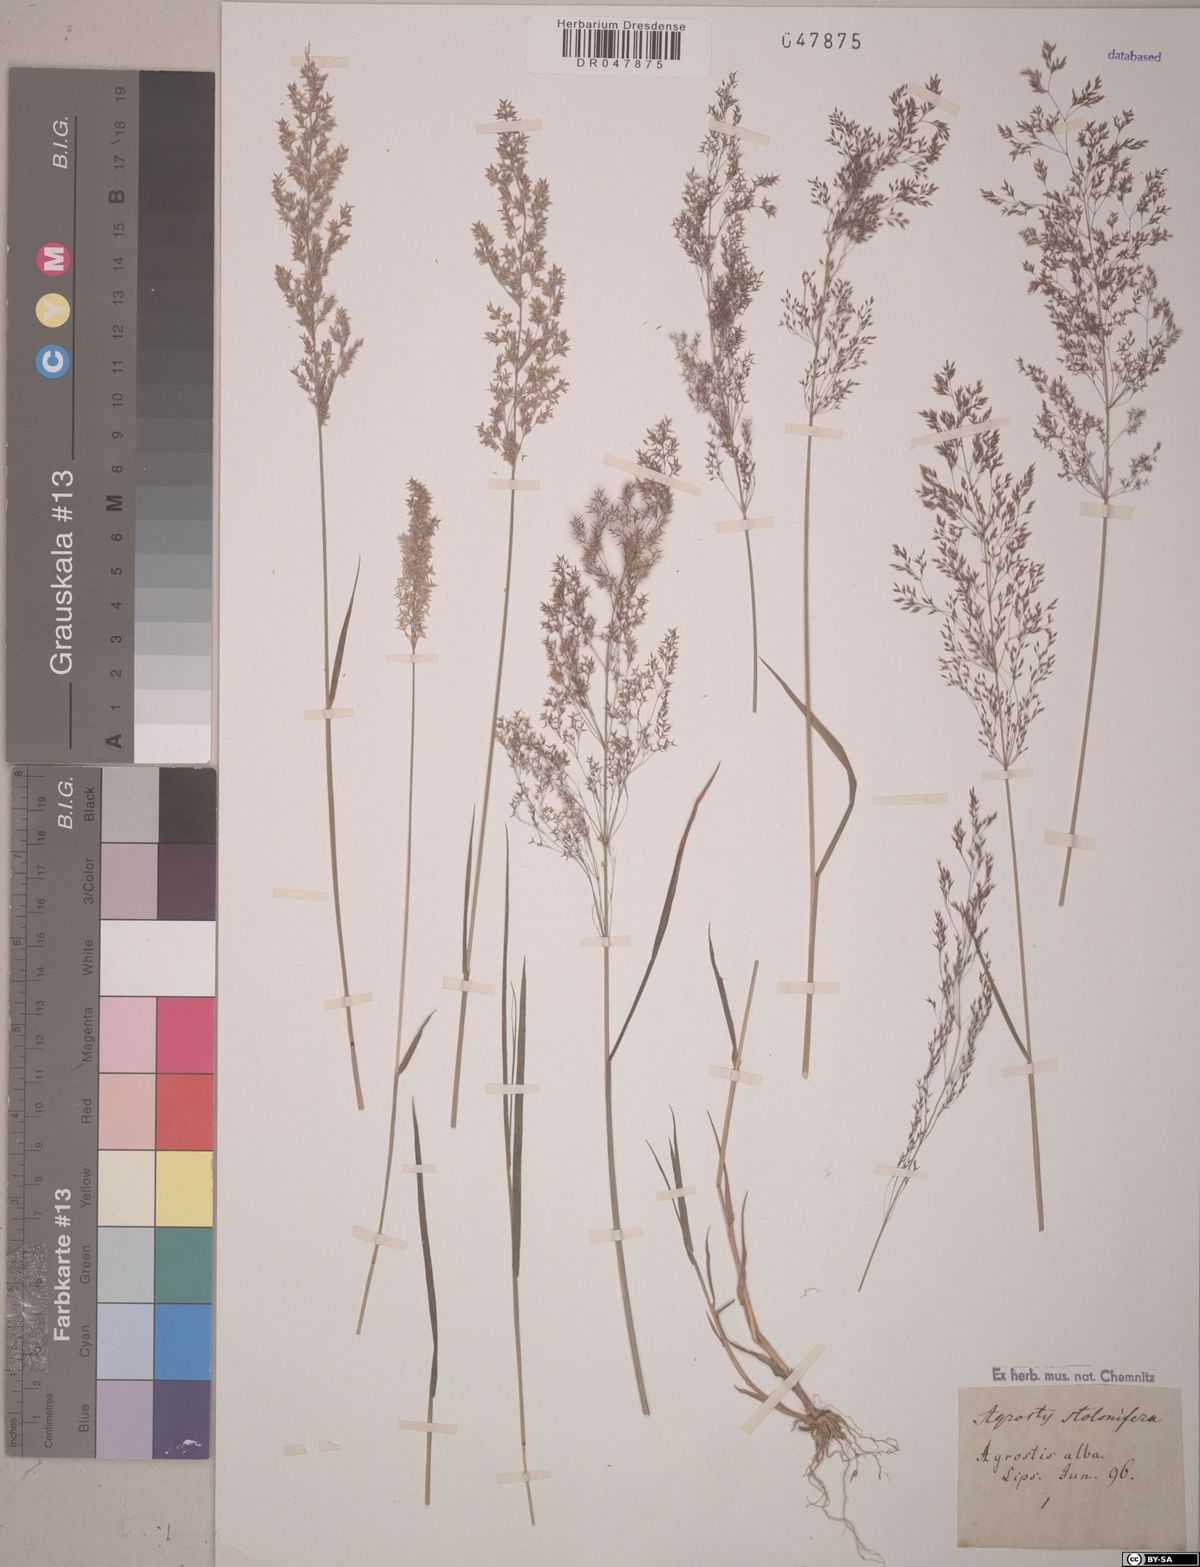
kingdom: Plantae
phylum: Tracheophyta
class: Liliopsida
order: Poales
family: Poaceae
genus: Agrostis
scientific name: Agrostis stolonifera
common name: Creeping bentgrass
